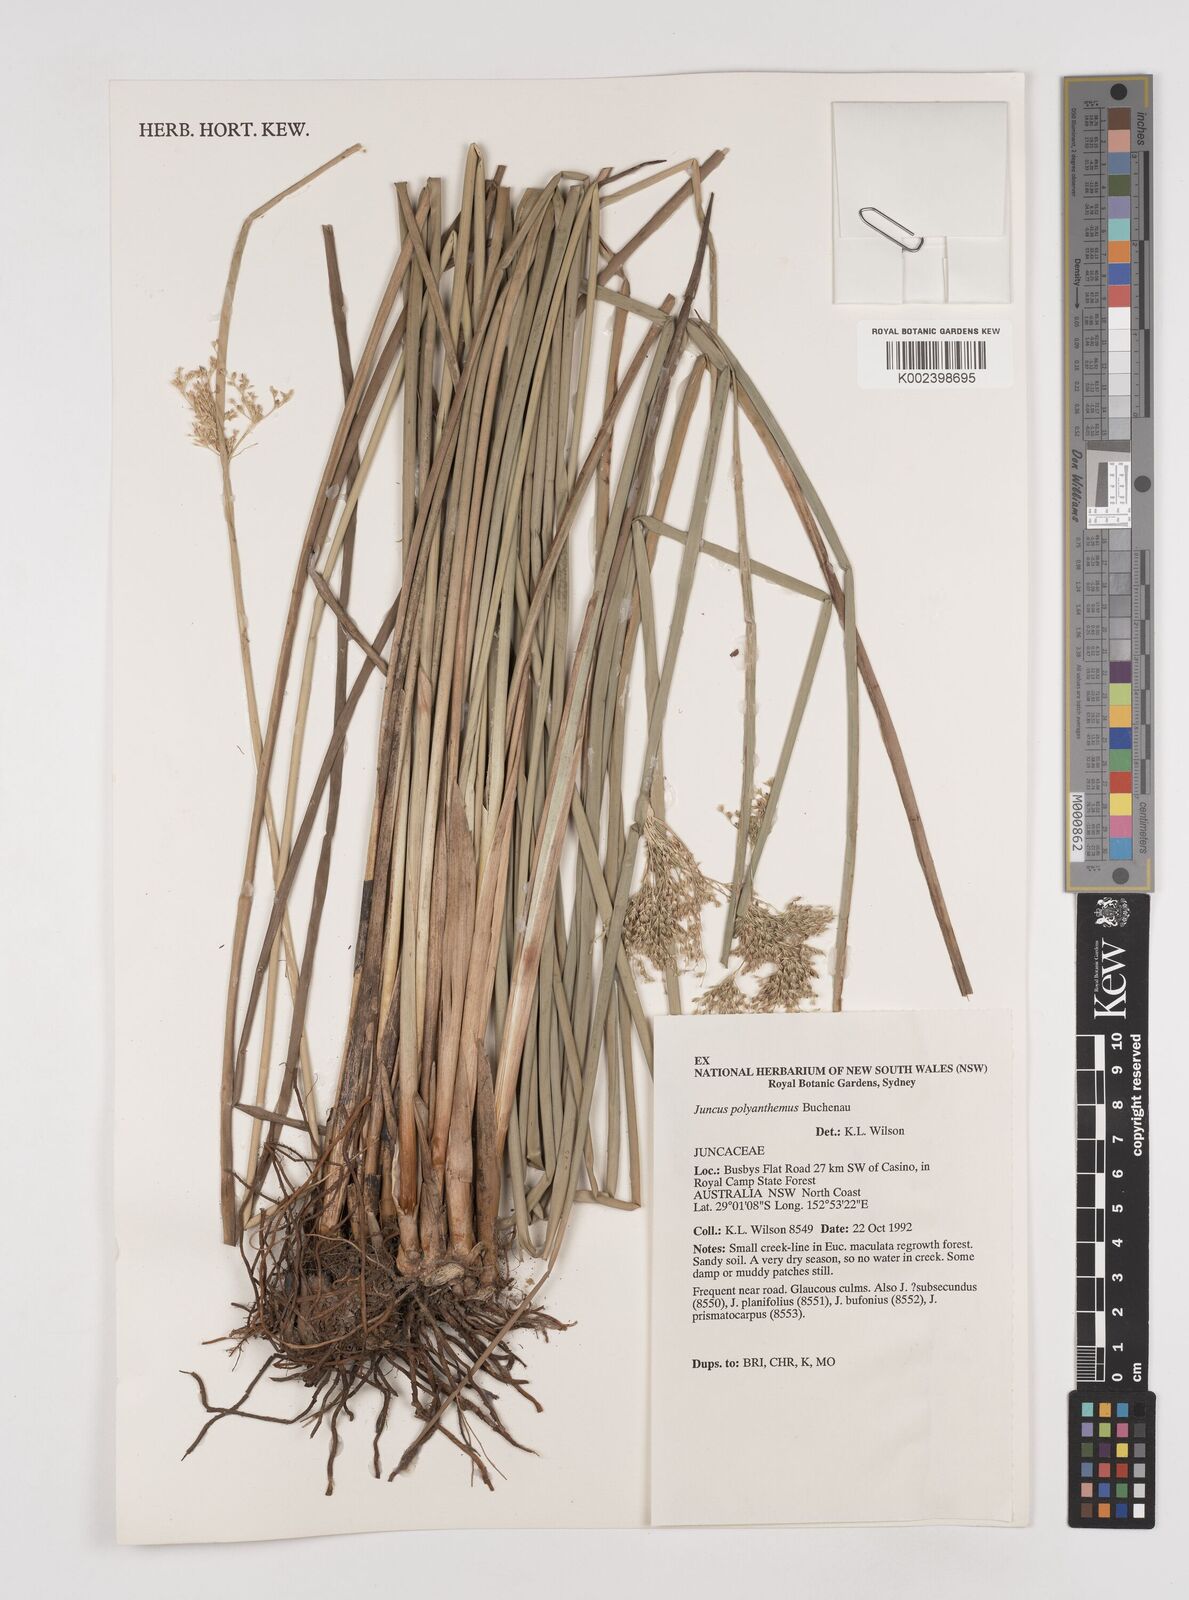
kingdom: Plantae
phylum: Tracheophyta
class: Liliopsida
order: Poales
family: Juncaceae
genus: Juncus
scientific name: Juncus
